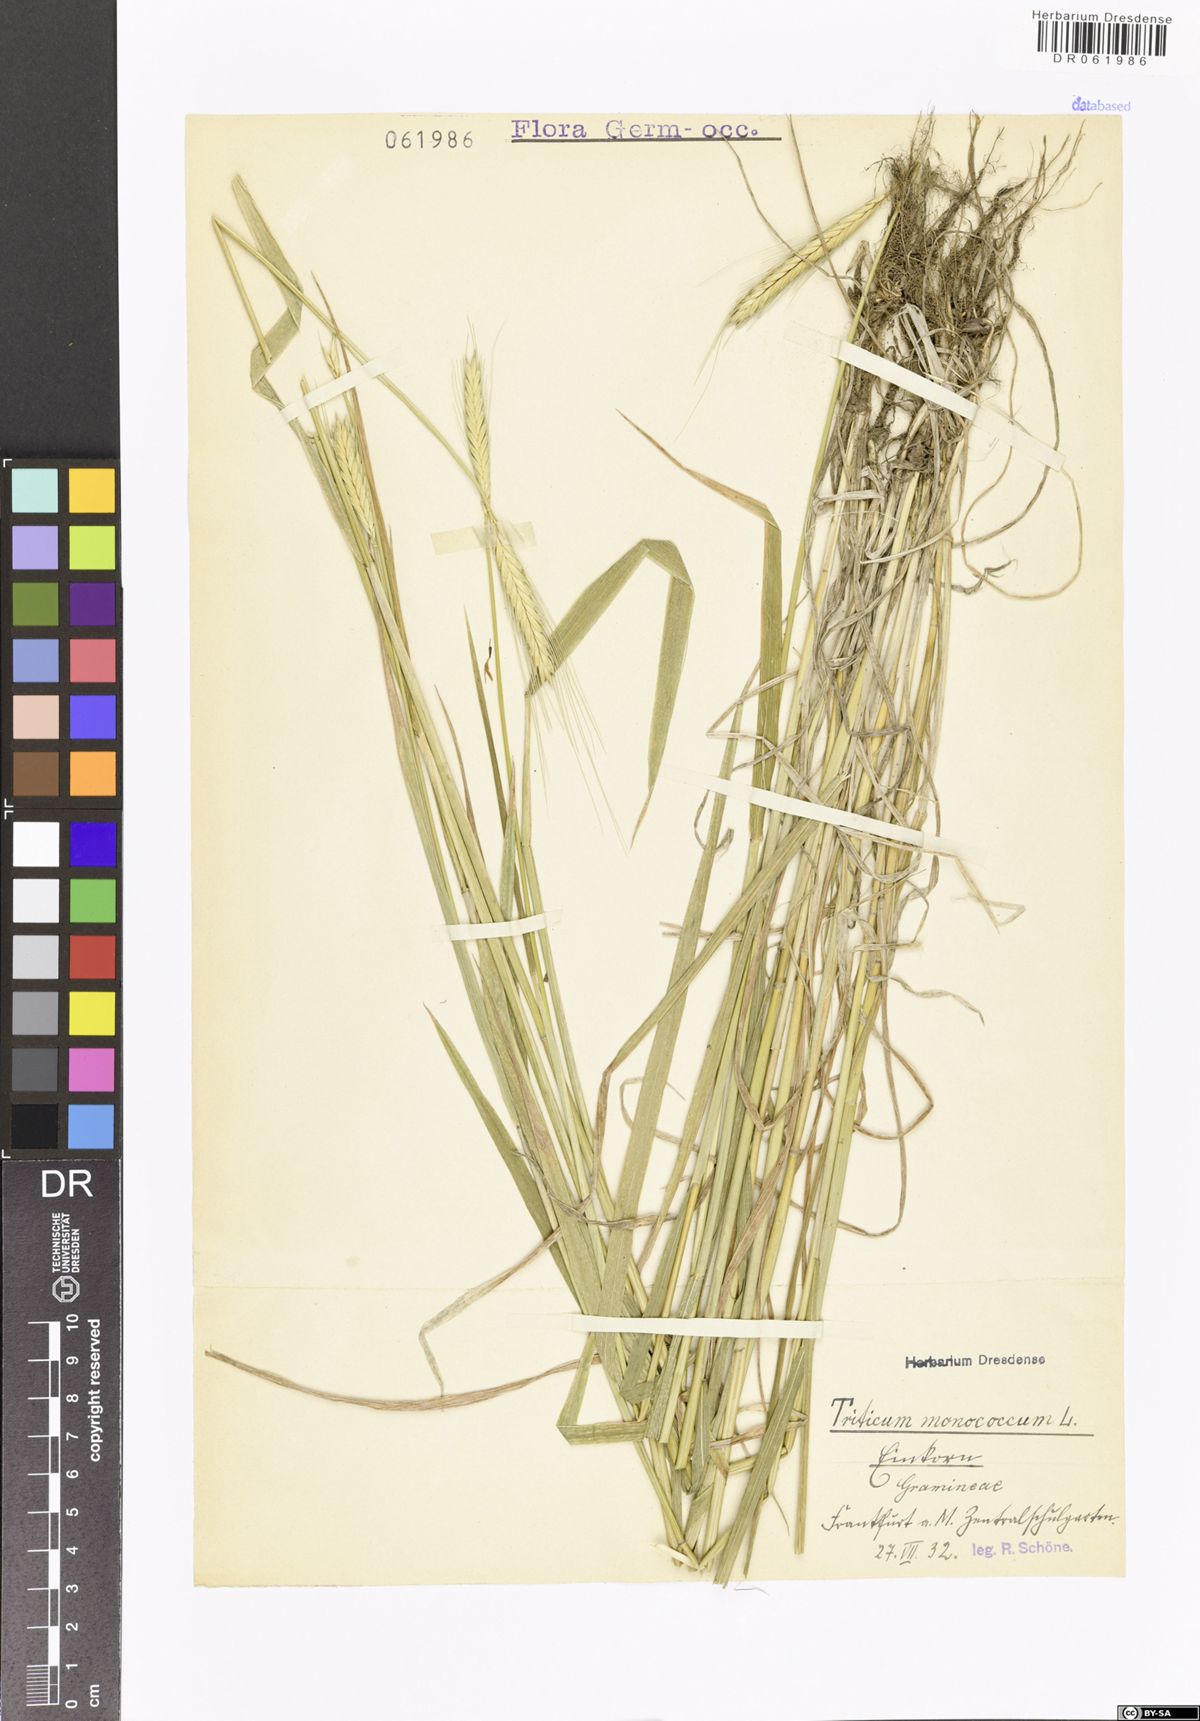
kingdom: Plantae
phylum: Tracheophyta
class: Liliopsida
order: Poales
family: Poaceae
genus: Triticum
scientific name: Triticum monococcum
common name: Einkorn
